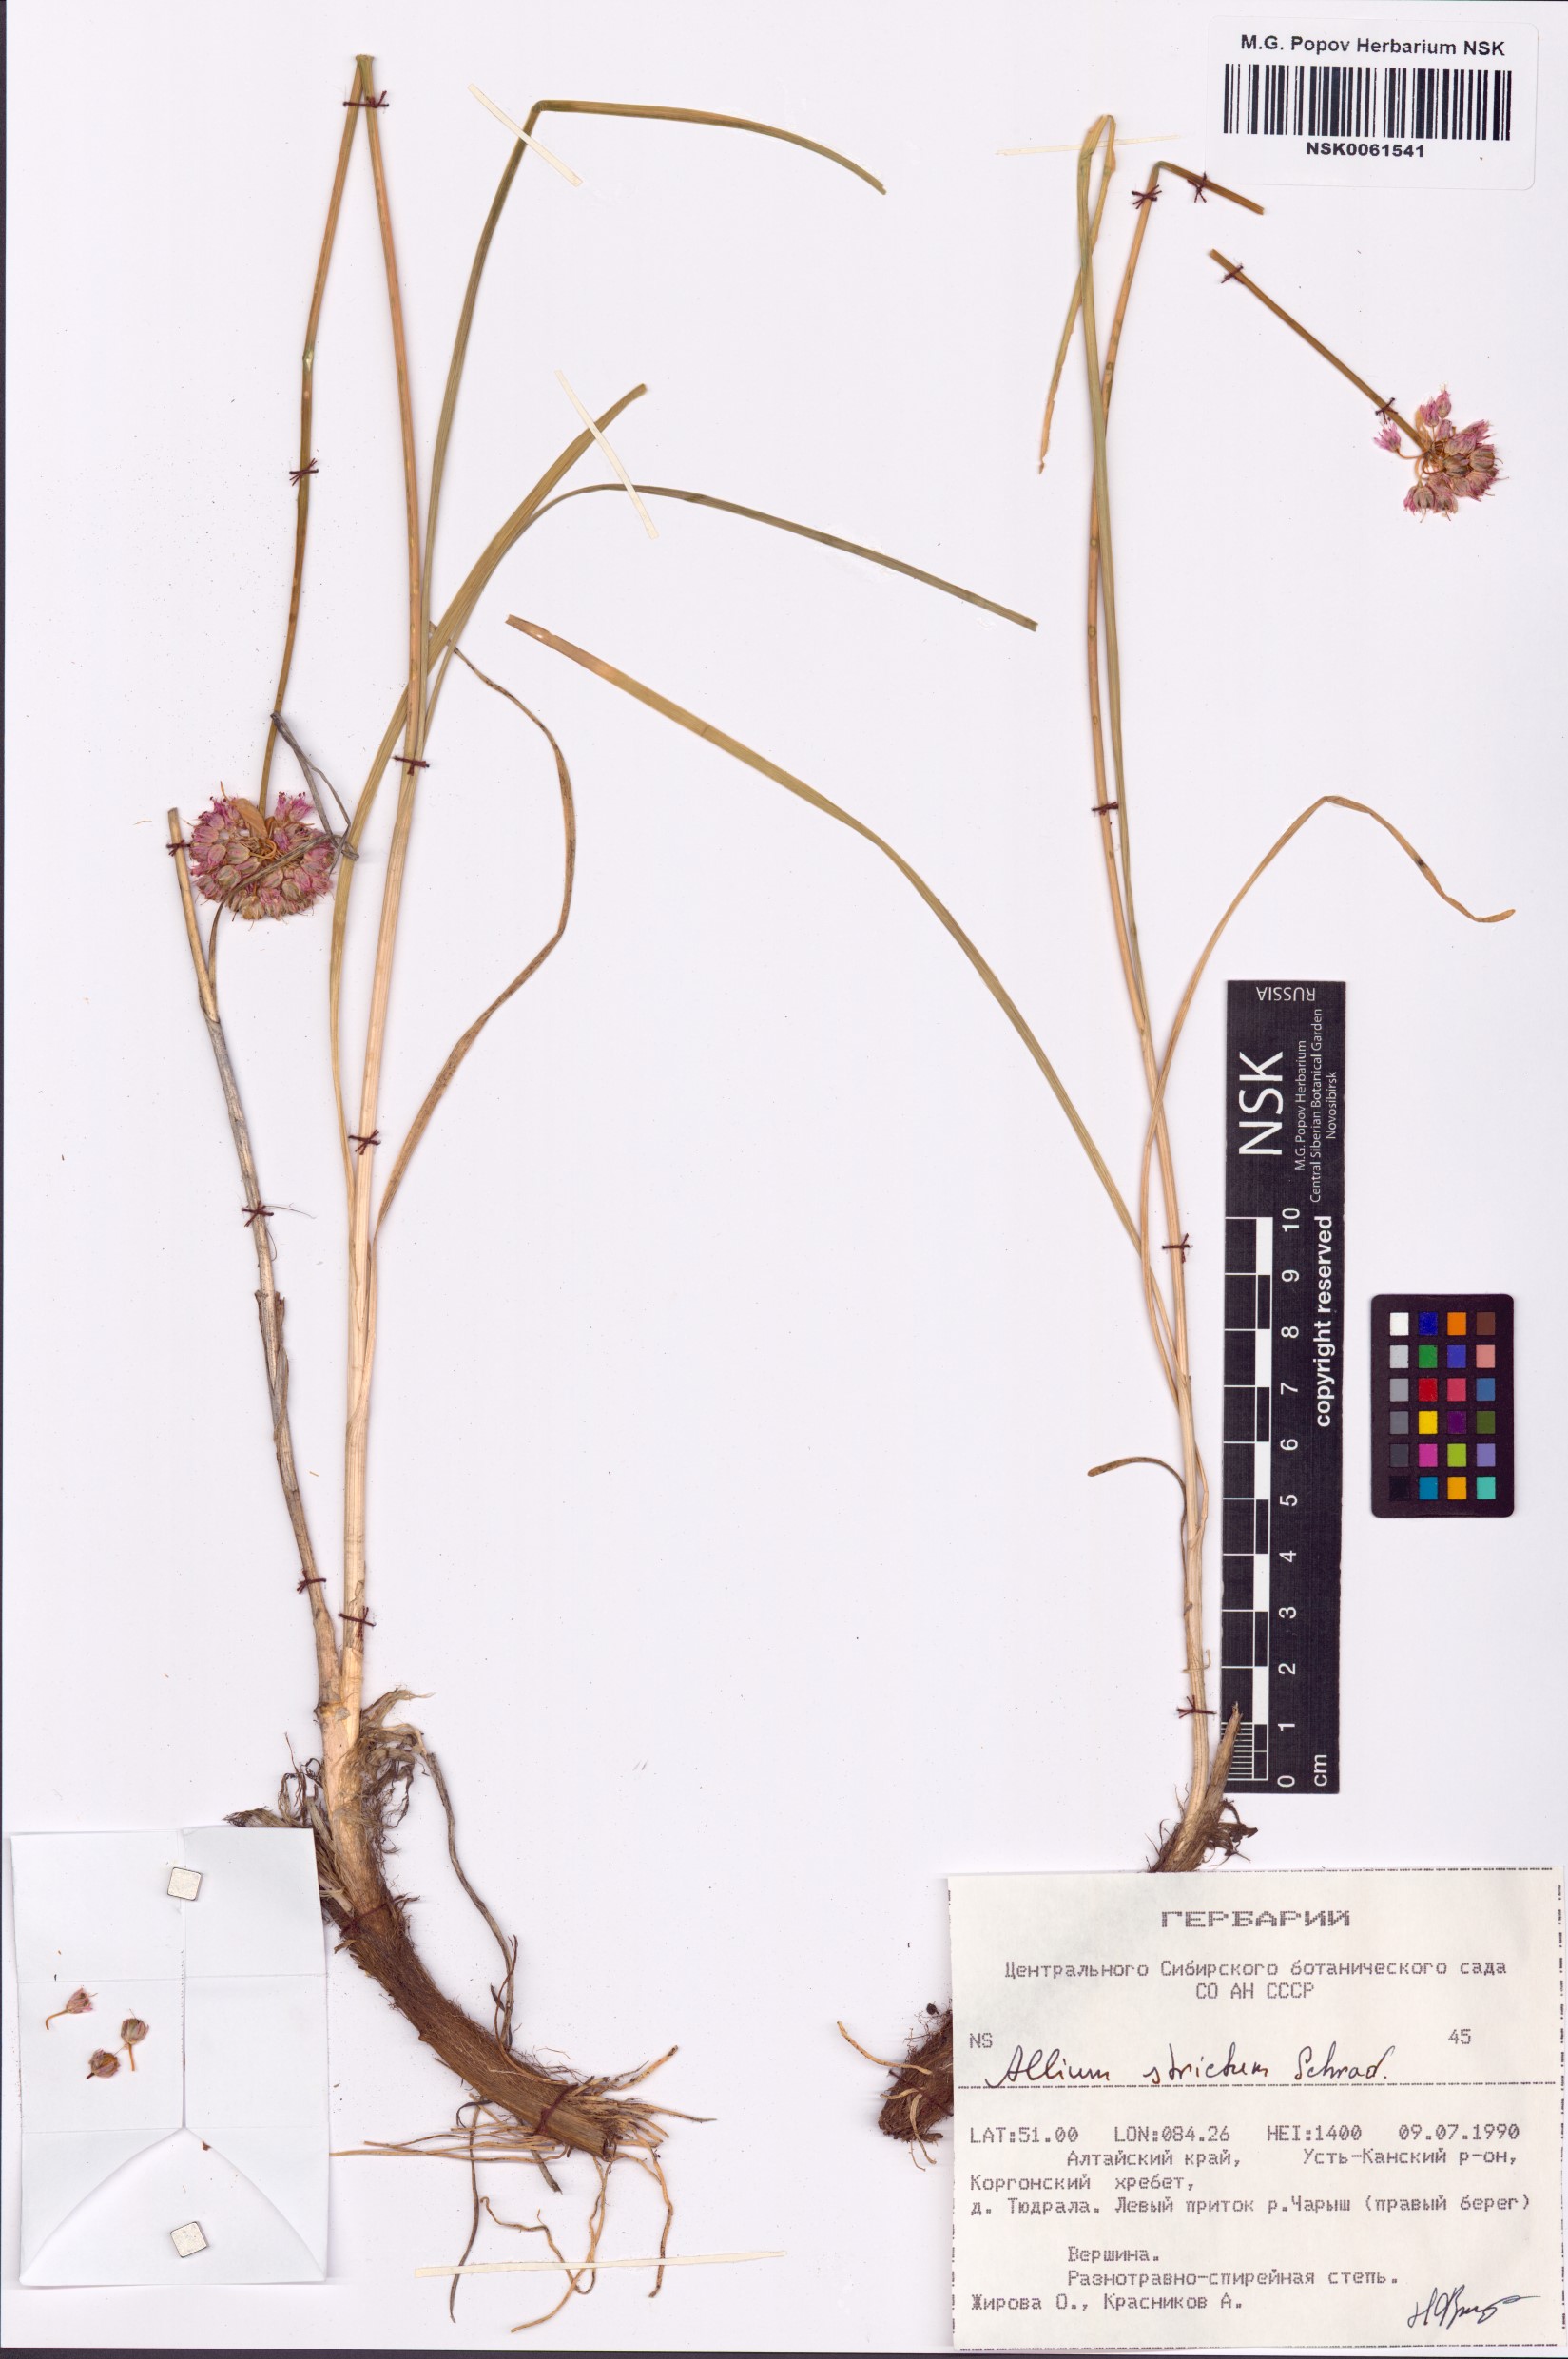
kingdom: Plantae
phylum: Tracheophyta
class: Liliopsida
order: Asparagales
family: Amaryllidaceae
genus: Allium
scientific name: Allium strictum
